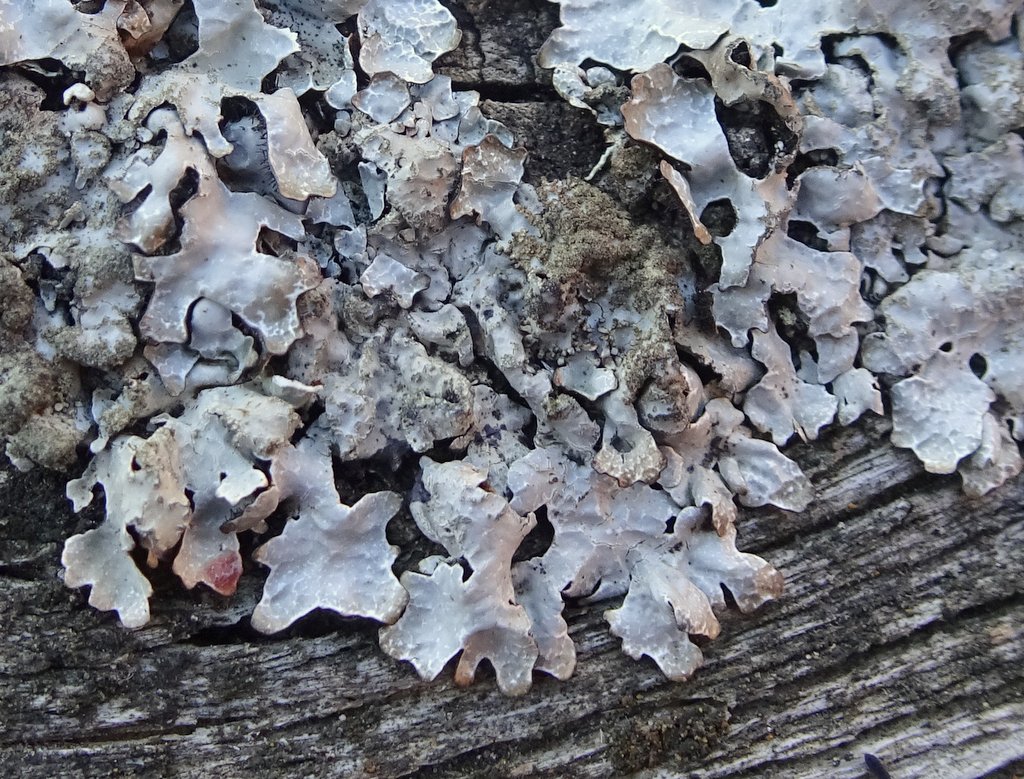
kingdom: Fungi
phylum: Ascomycota
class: Lecanoromycetes
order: Lecanorales
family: Parmeliaceae
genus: Parmelia
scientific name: Parmelia sulcata
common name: rynket skållav
